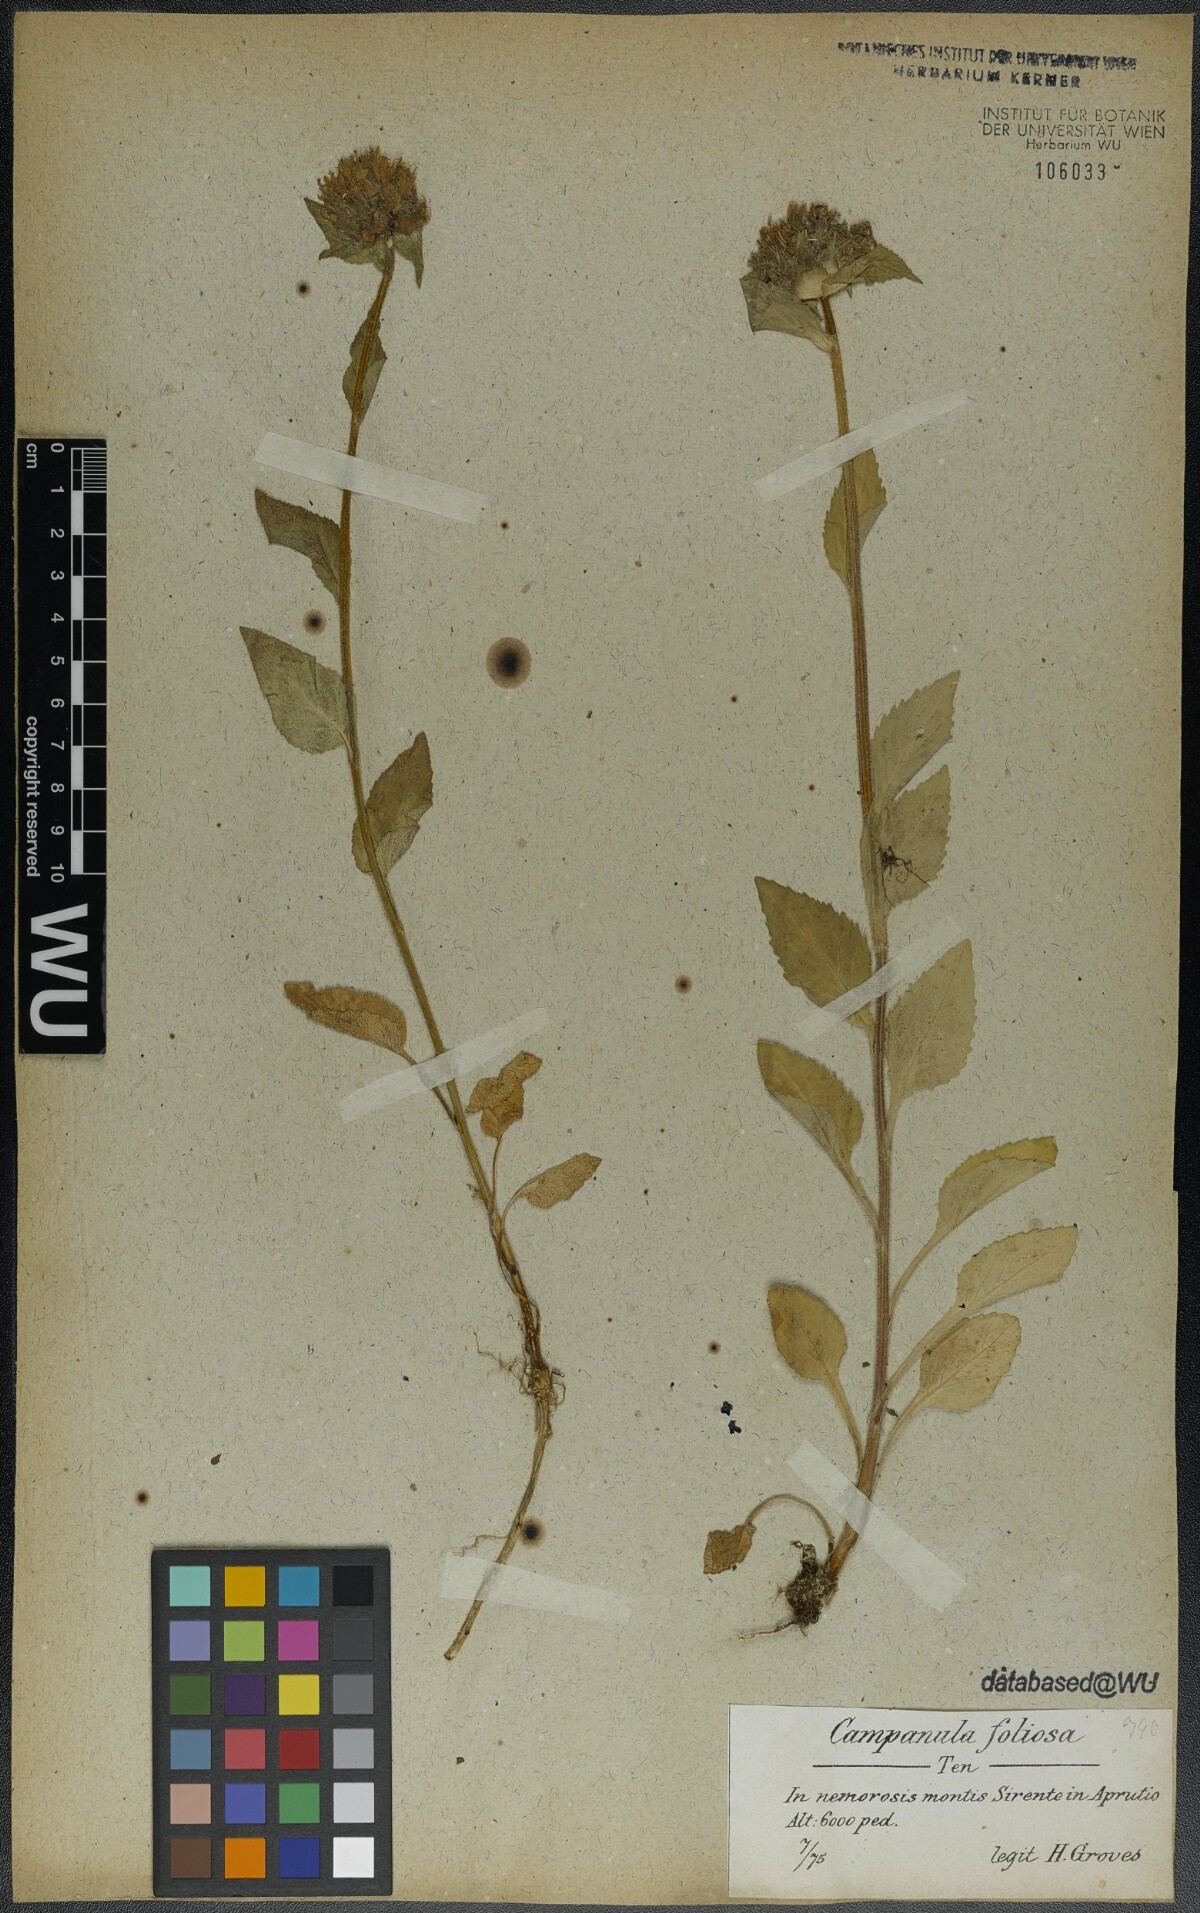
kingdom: Plantae
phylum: Tracheophyta
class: Magnoliopsida
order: Asterales
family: Campanulaceae
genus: Campanula
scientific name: Campanula foliosa
